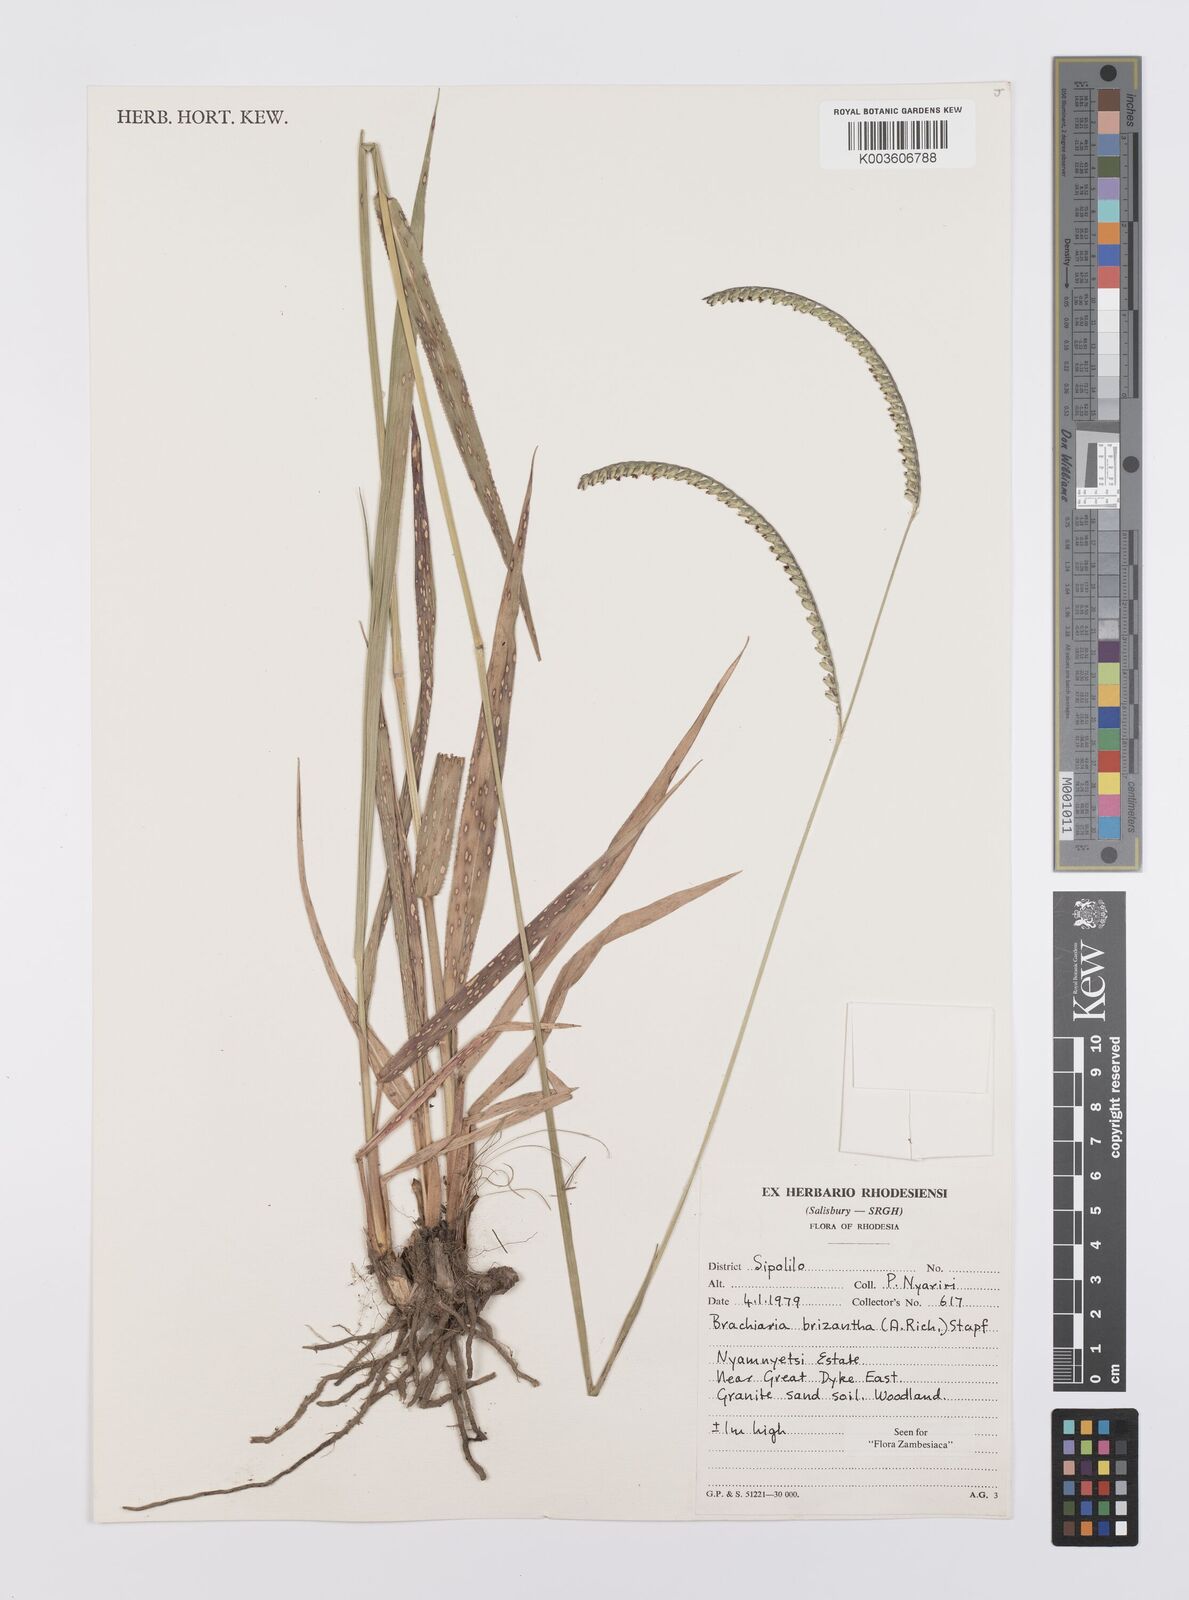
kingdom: Plantae
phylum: Tracheophyta
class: Liliopsida
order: Poales
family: Poaceae
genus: Urochloa
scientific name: Urochloa brizantha
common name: Palisade signalgrass
